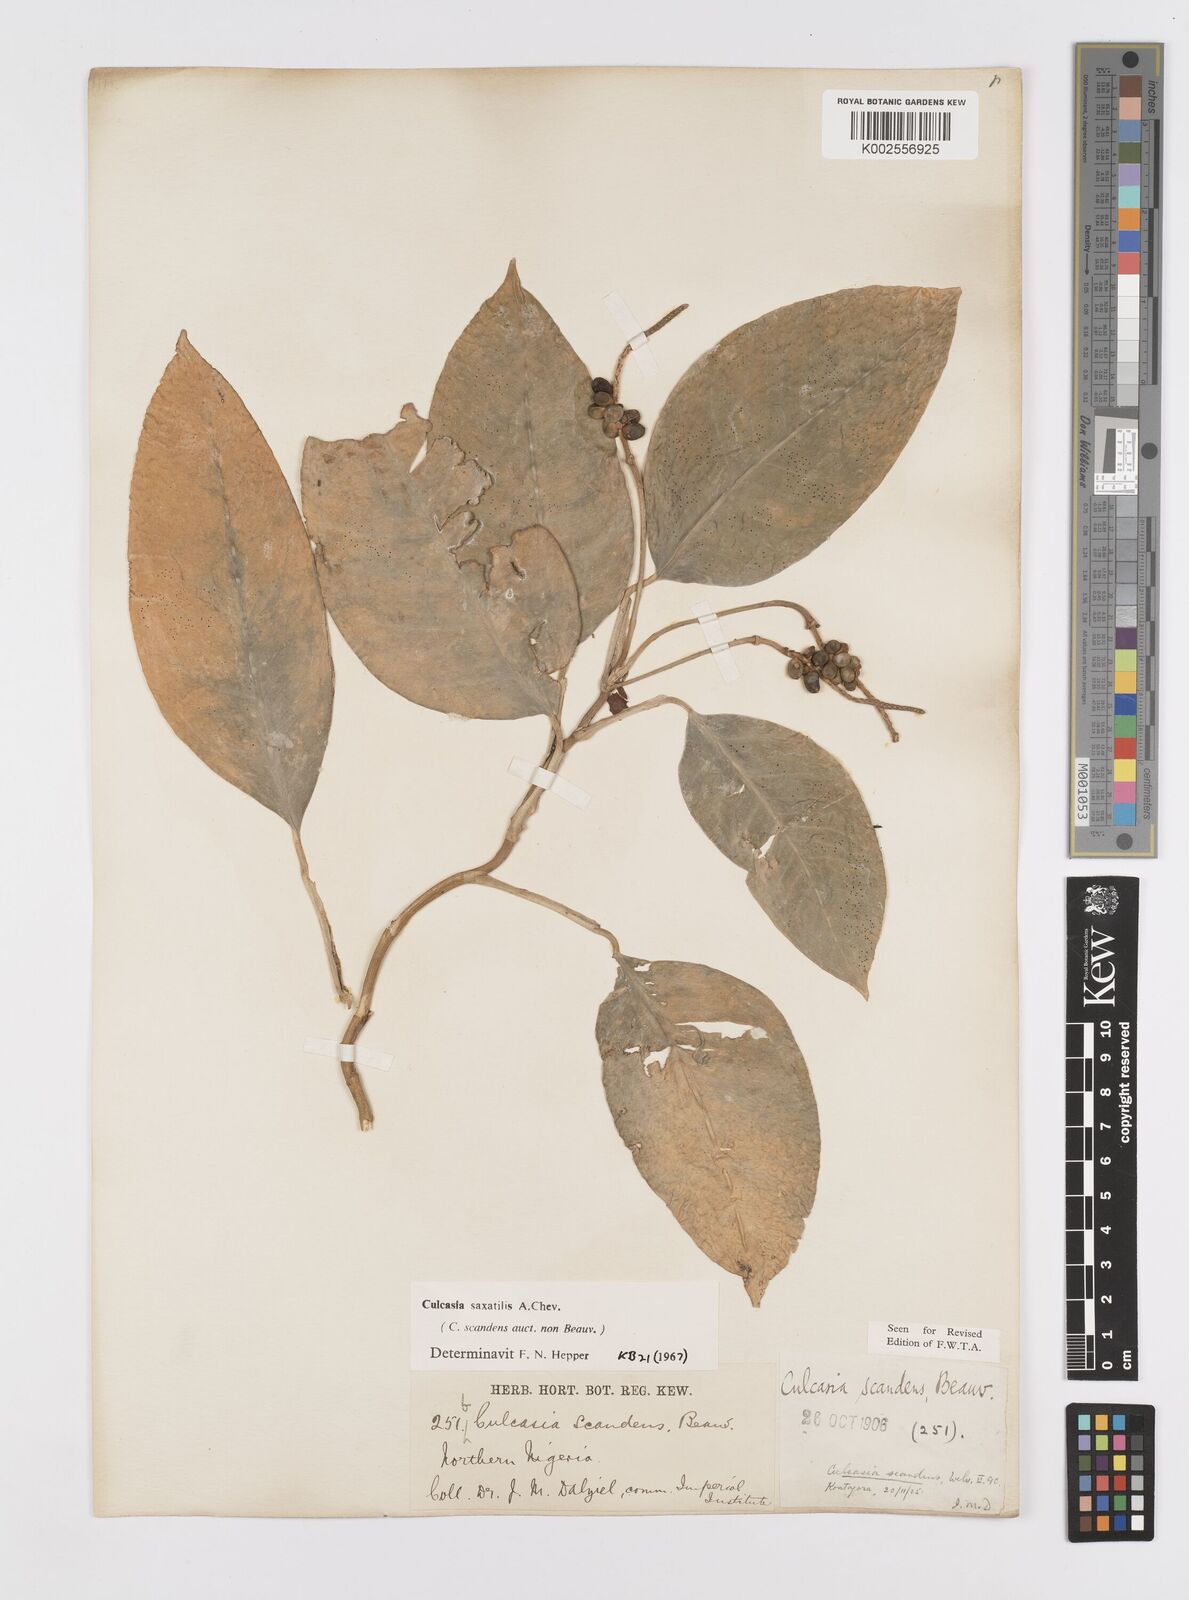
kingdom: Plantae
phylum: Tracheophyta
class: Liliopsida
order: Alismatales
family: Araceae
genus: Culcasia
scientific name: Culcasia scandens
